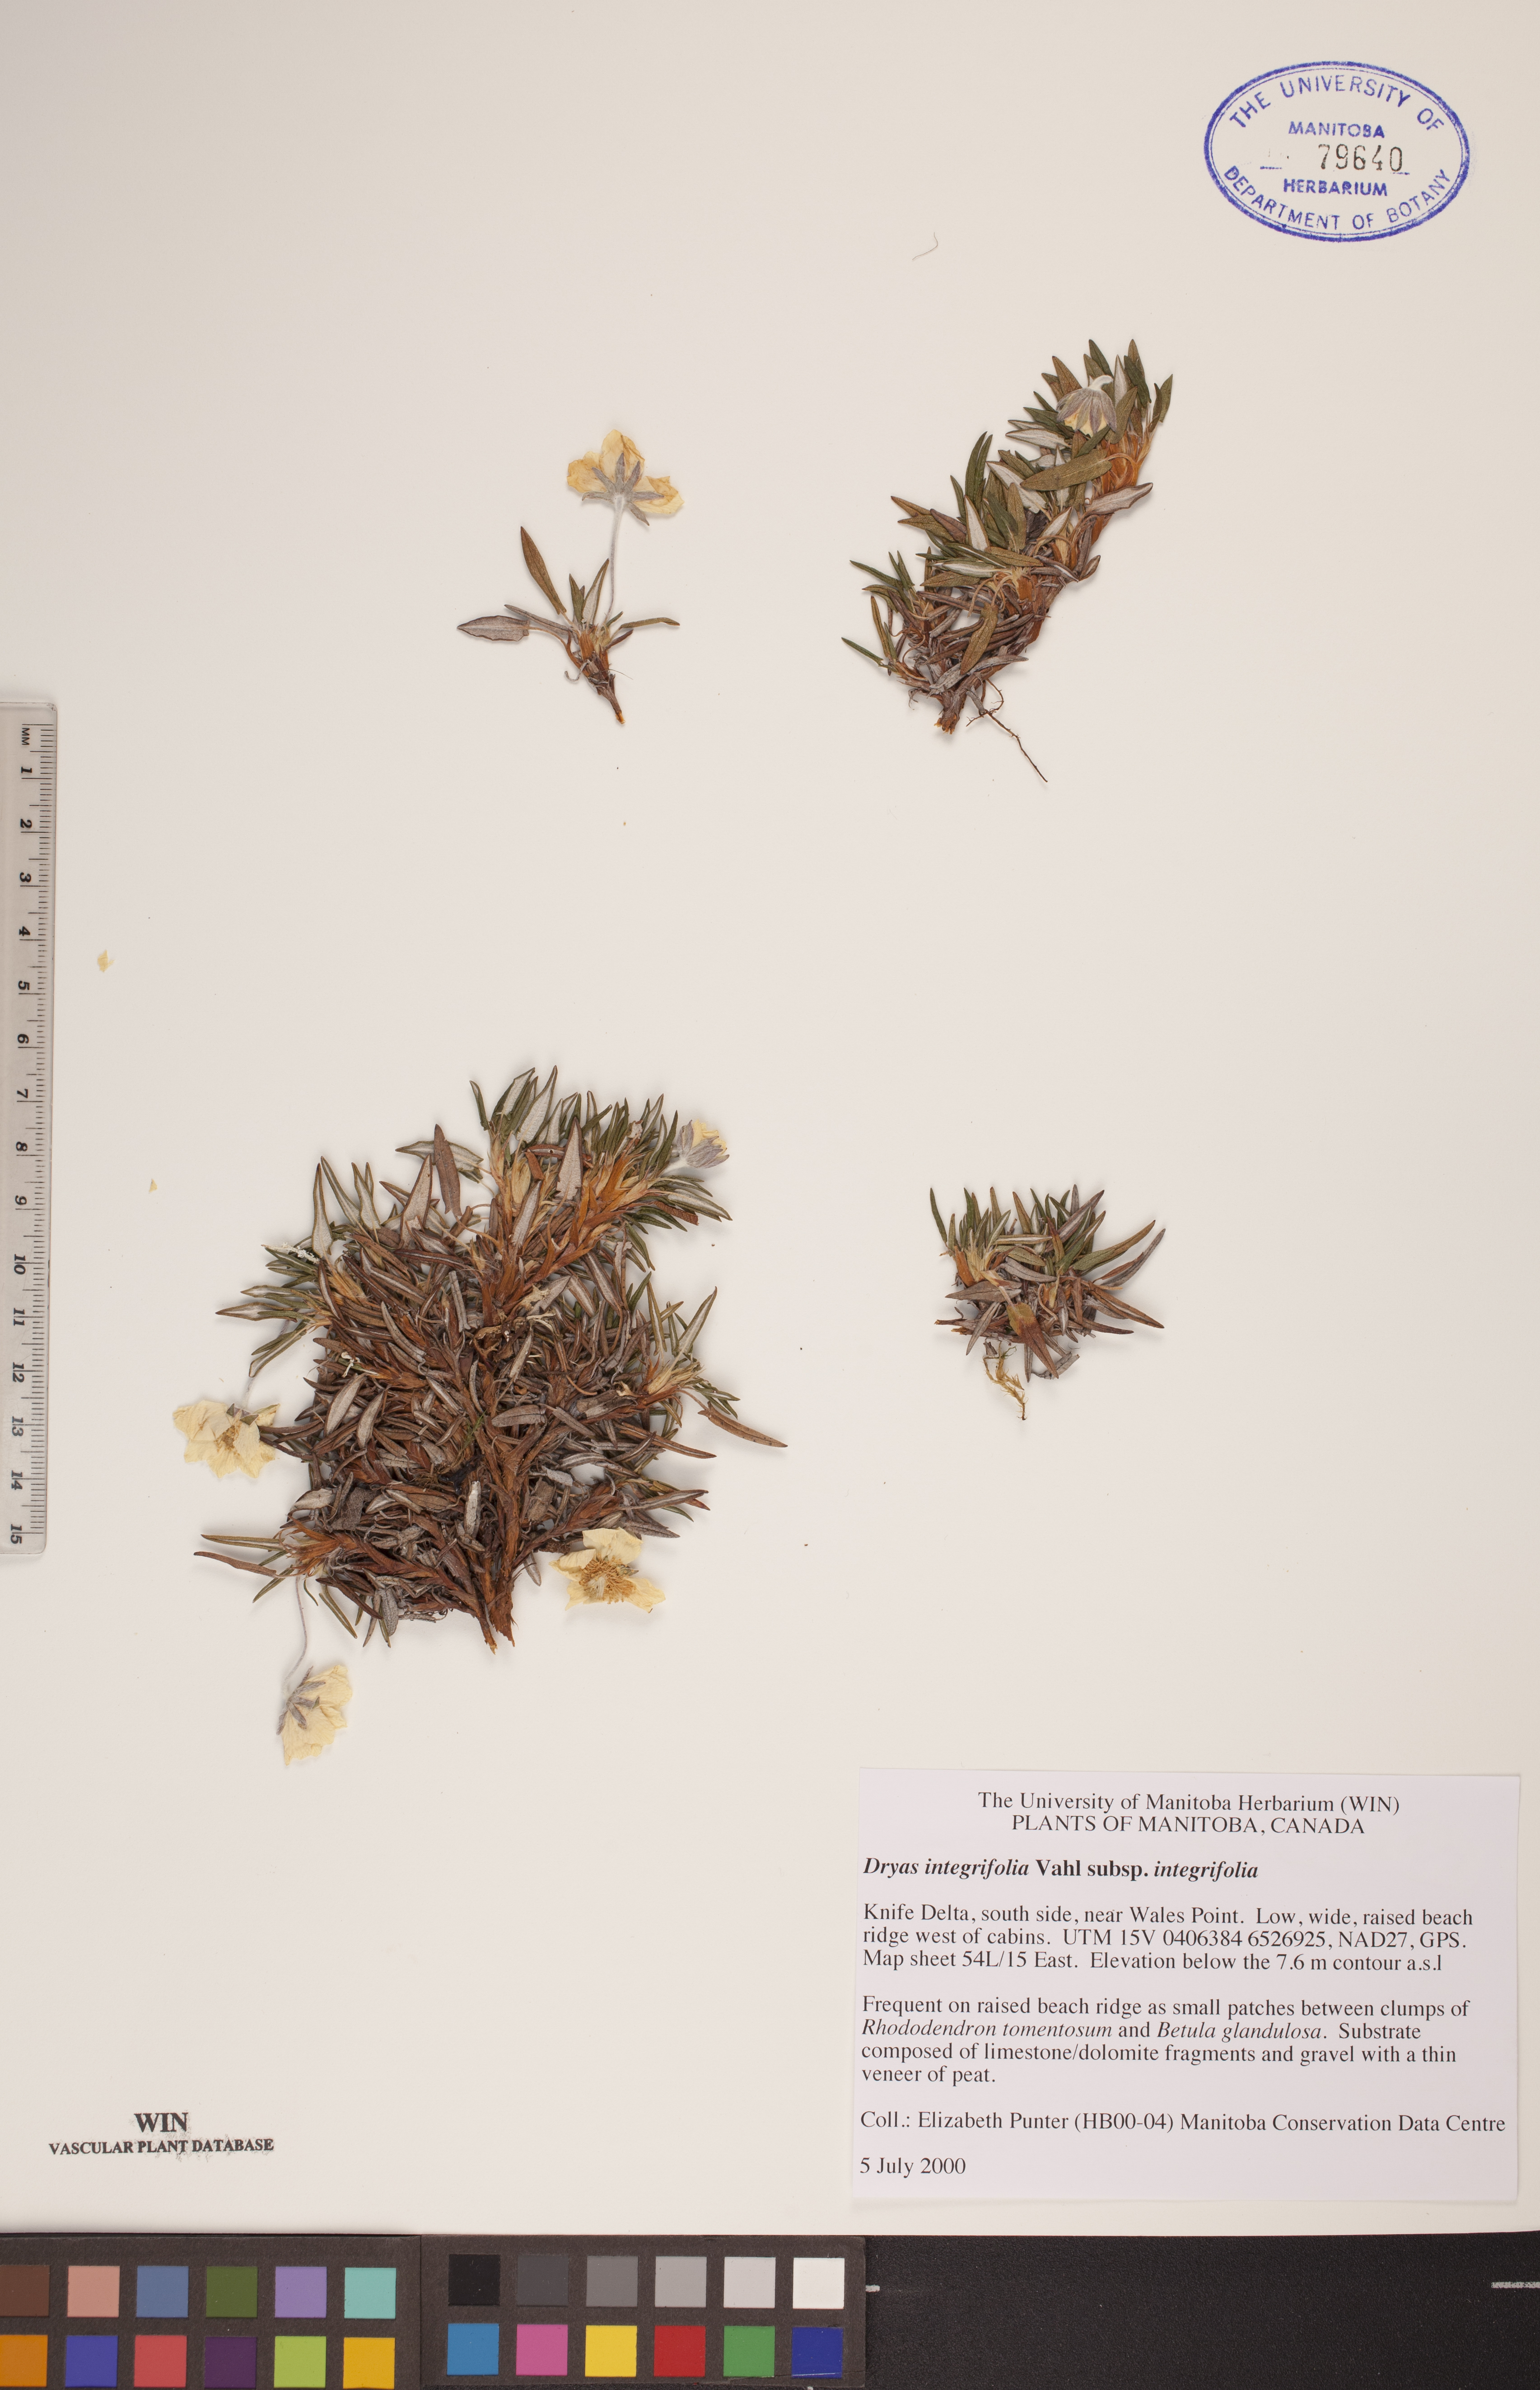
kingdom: Plantae
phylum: Tracheophyta
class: Magnoliopsida
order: Rosales
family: Rosaceae
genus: Dryas
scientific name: Dryas integrifolia
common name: Entire-leaved mountain avens
